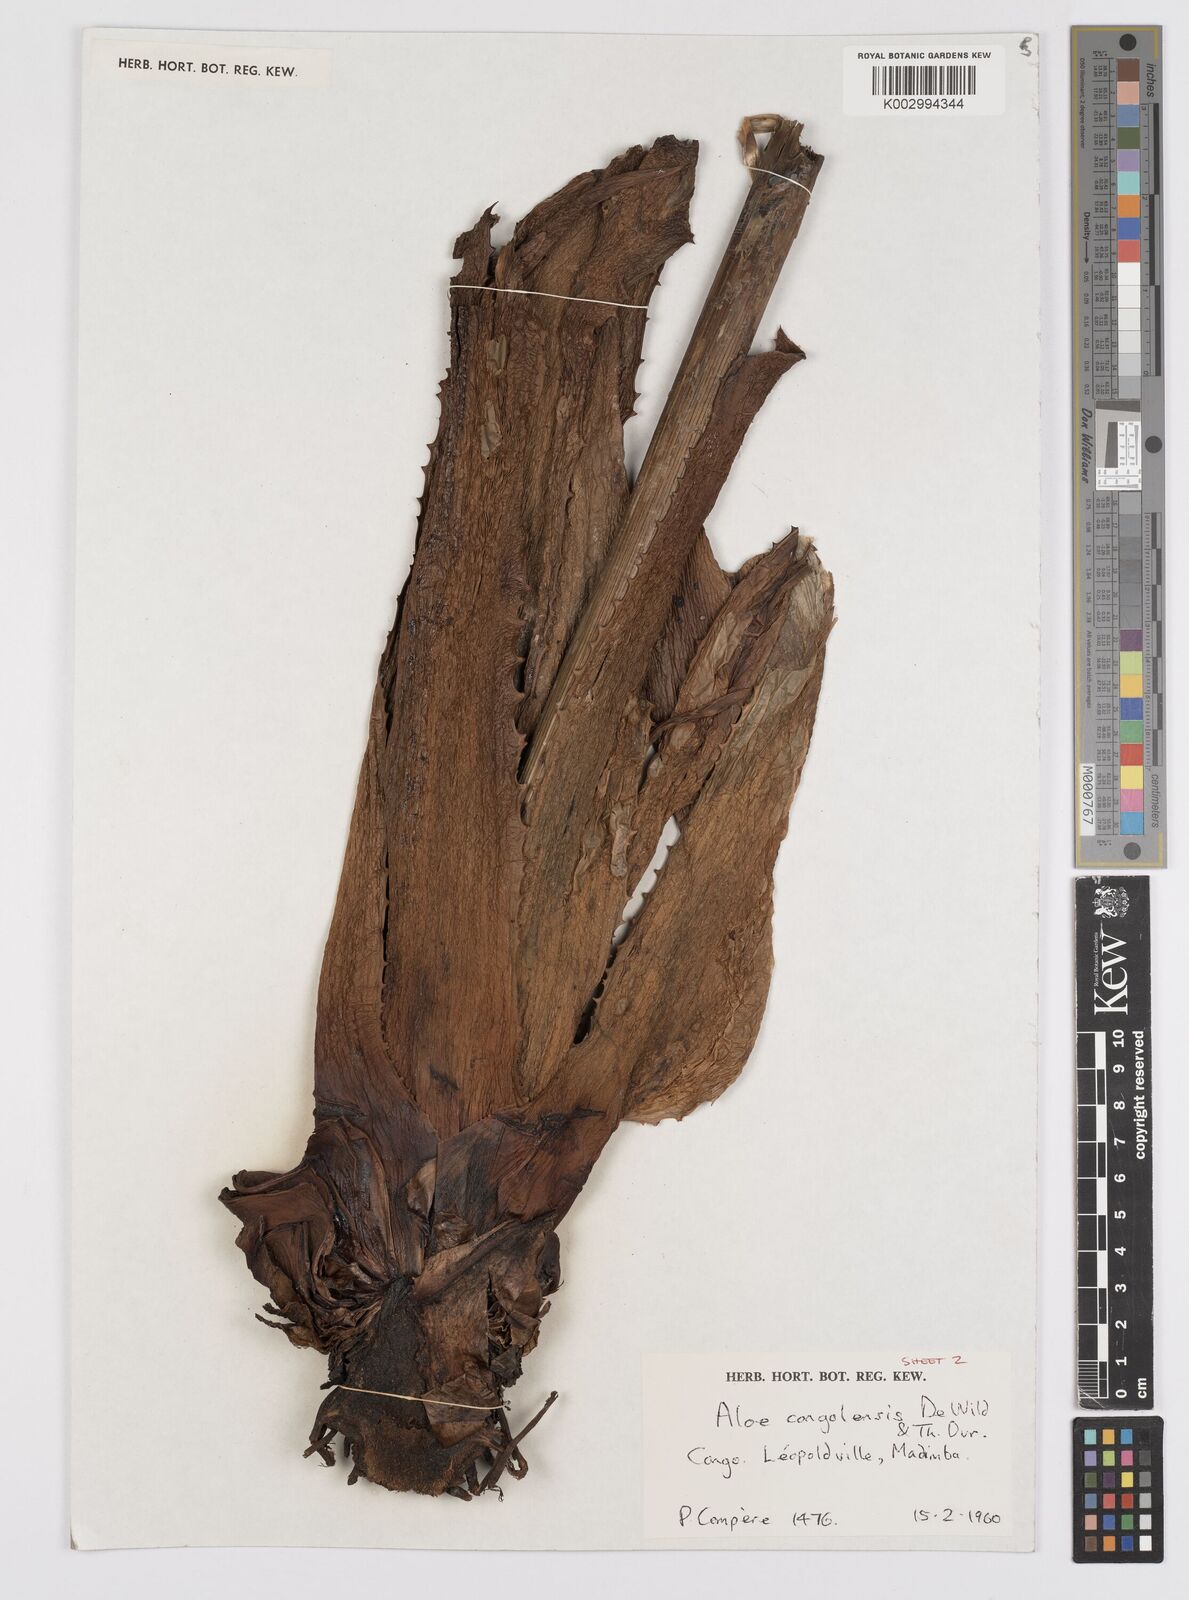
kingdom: Plantae
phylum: Tracheophyta
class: Liliopsida
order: Asparagales
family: Asphodelaceae
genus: Aloe
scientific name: Aloe buettneri
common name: West african aloe
